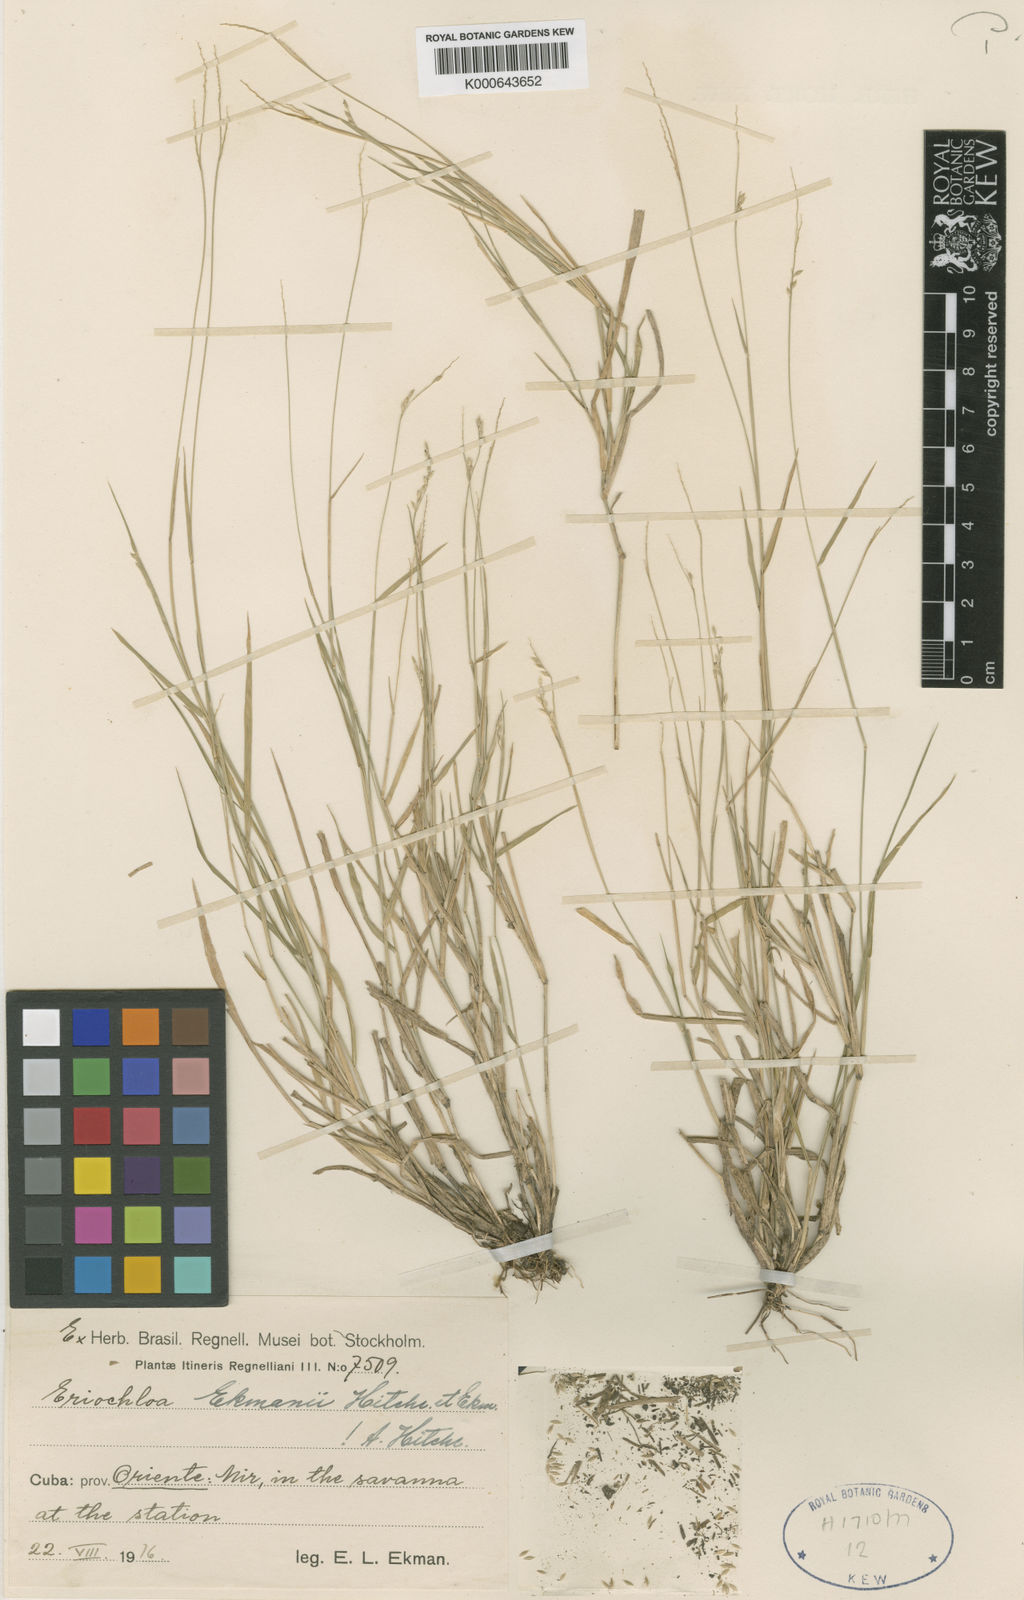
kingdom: Plantae
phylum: Tracheophyta
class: Liliopsida
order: Poales
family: Poaceae
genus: Eriochloa
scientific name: Eriochloa setosa
